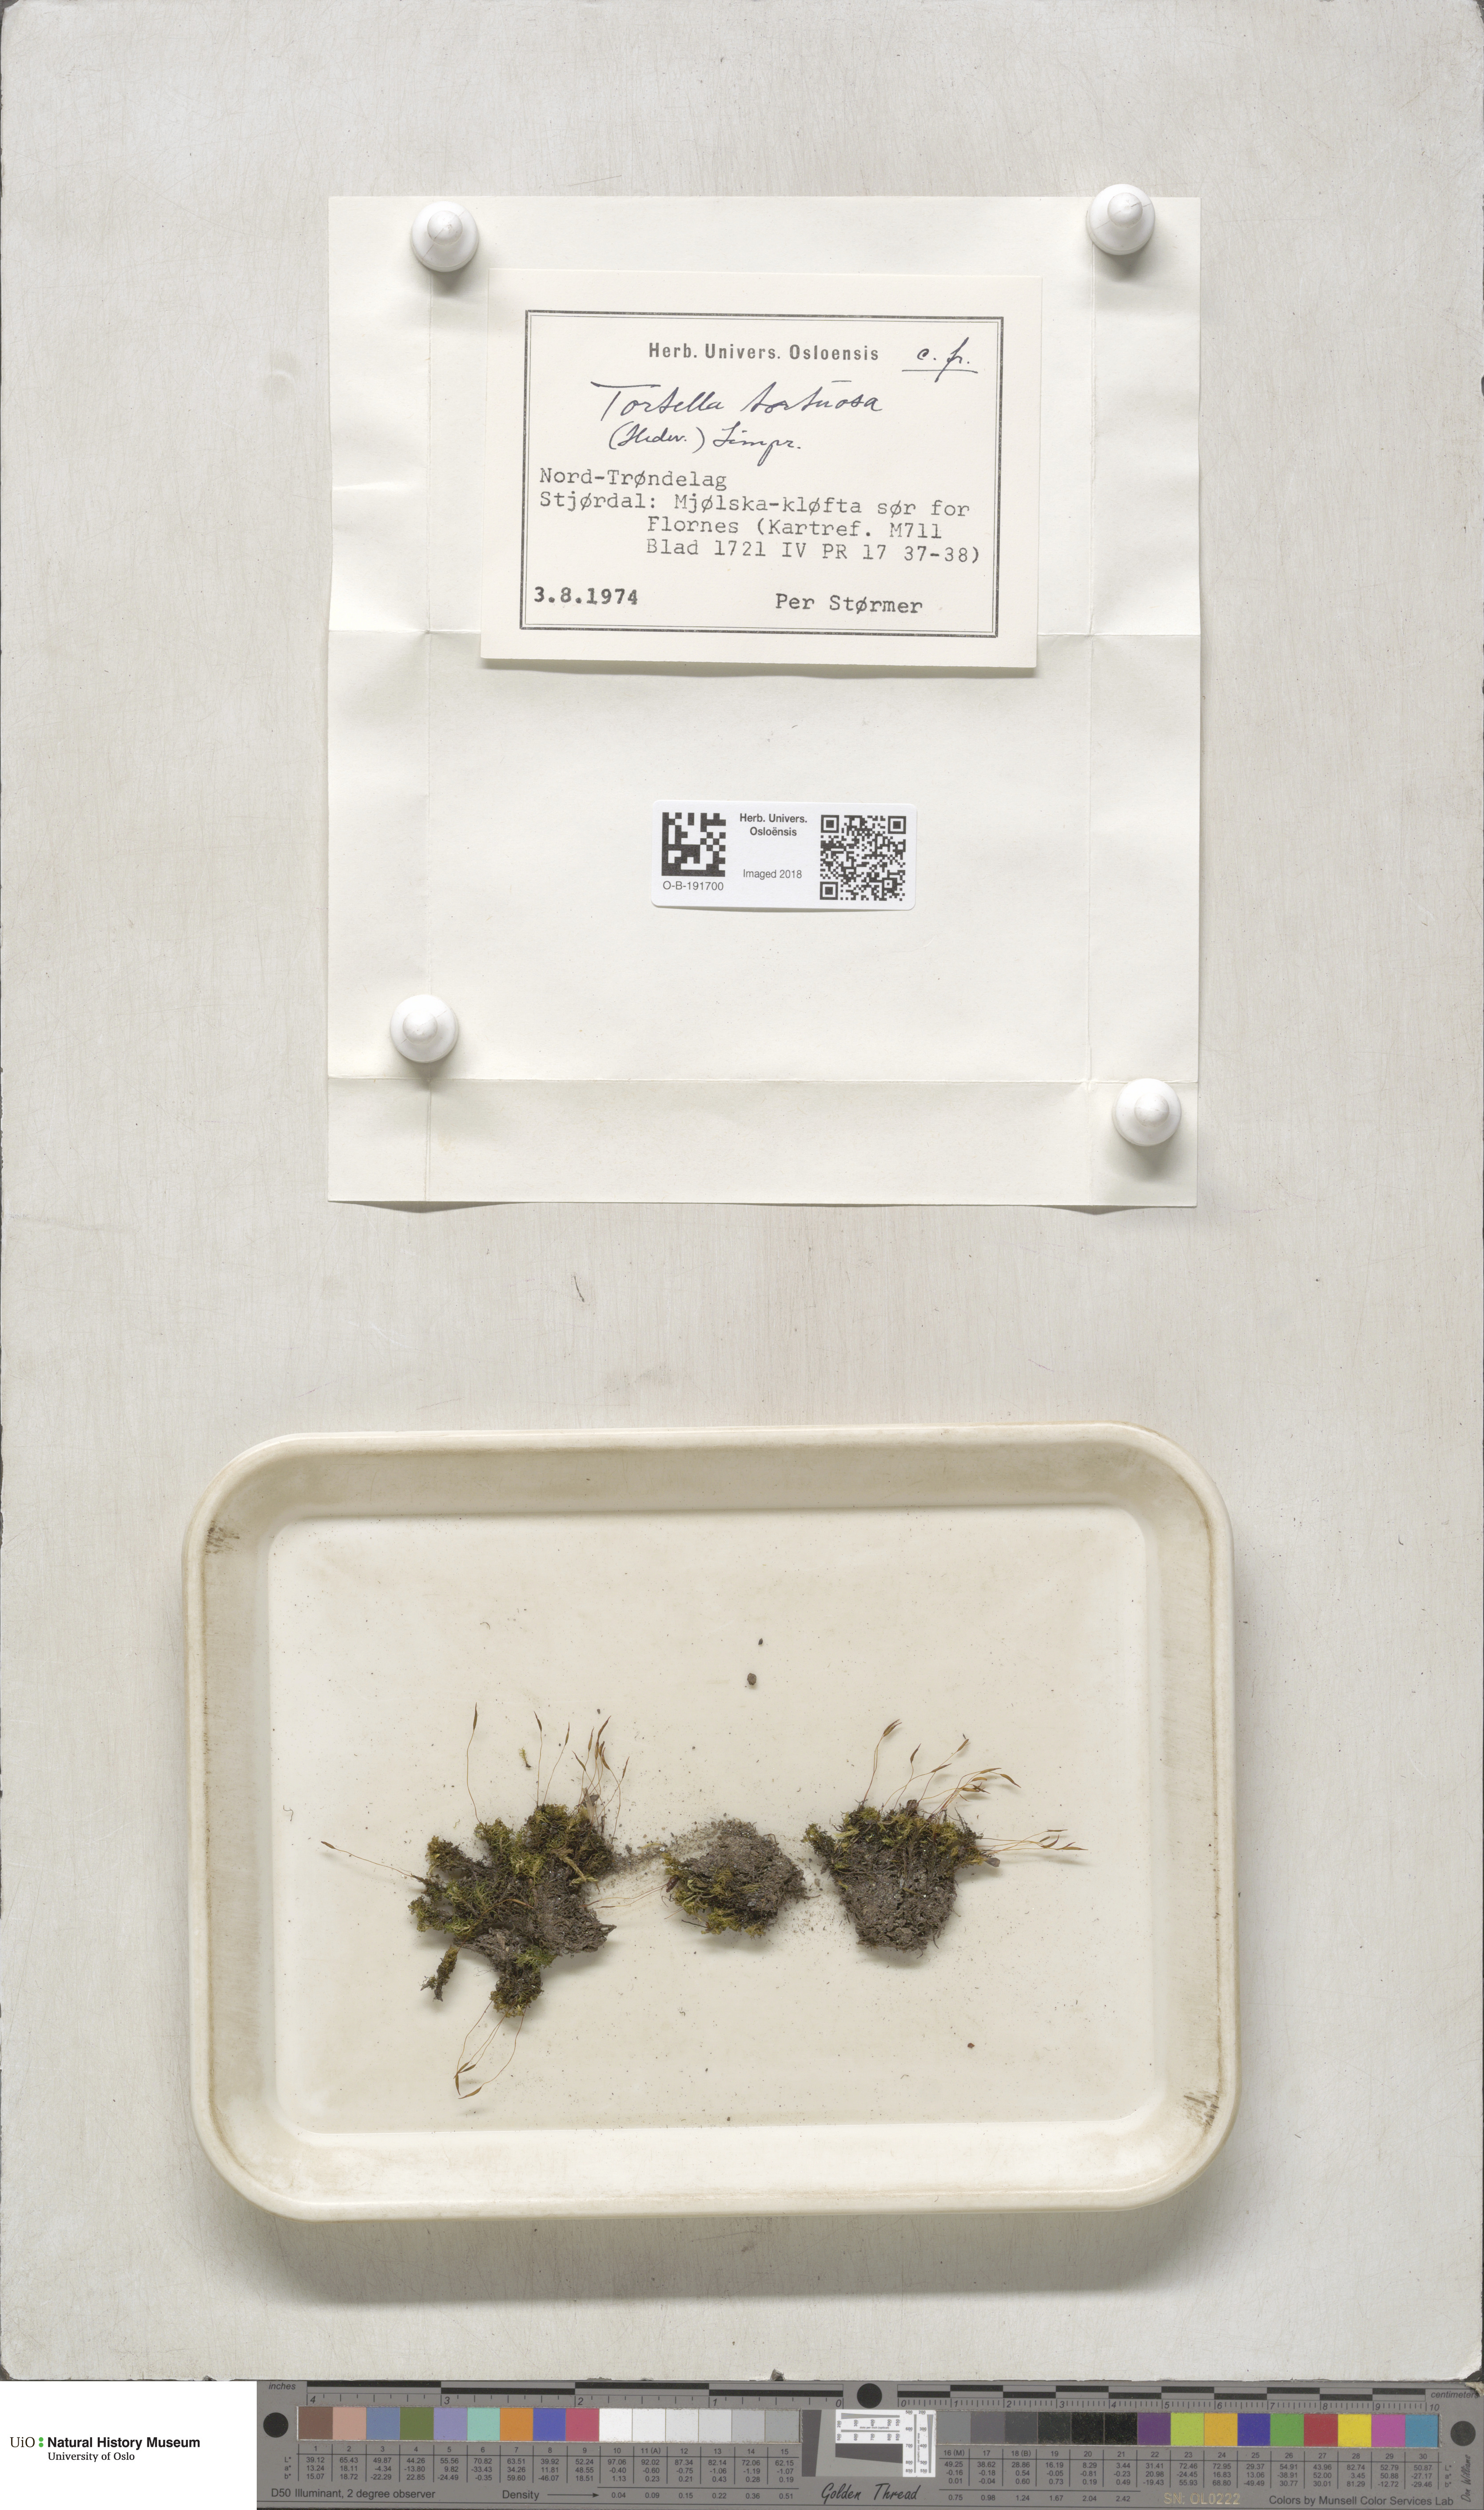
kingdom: Plantae
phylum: Bryophyta
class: Bryopsida
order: Pottiales
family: Pottiaceae
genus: Tortella
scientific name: Tortella tortuosa
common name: Frizzled crisp moss
